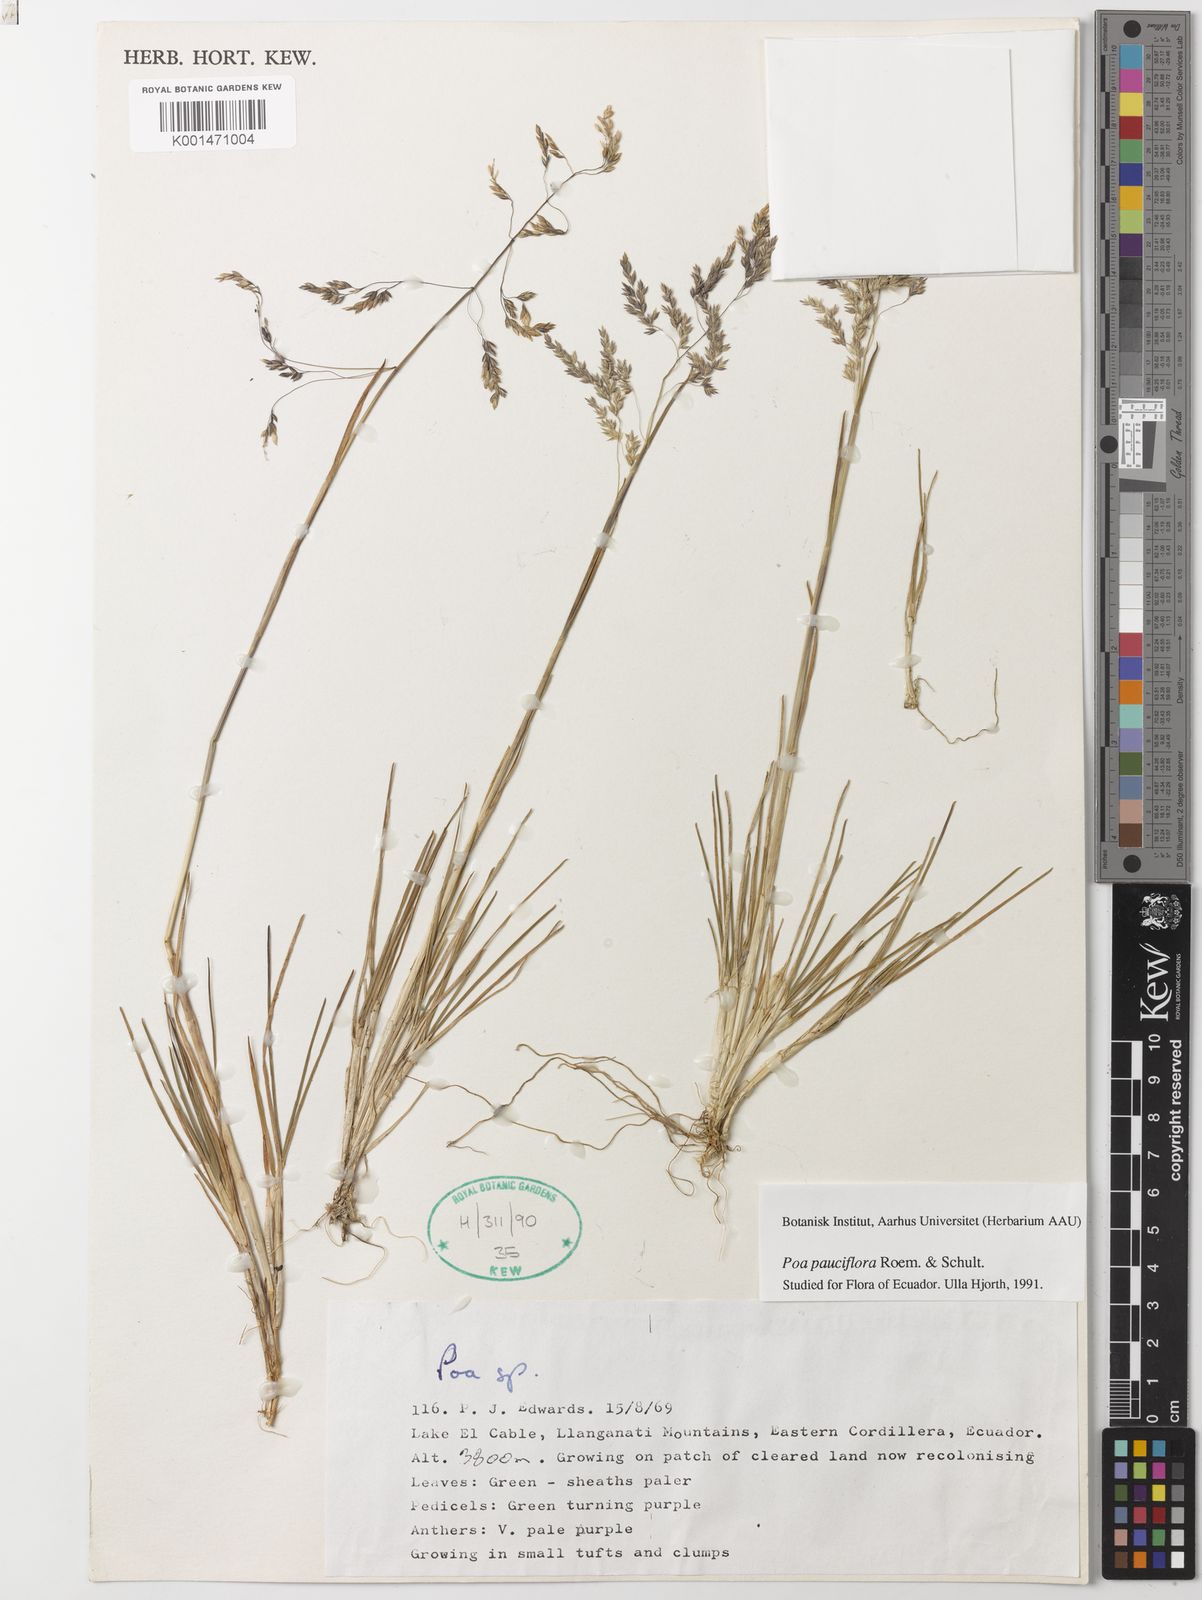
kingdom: Plantae
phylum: Tracheophyta
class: Liliopsida
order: Poales
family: Poaceae
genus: Poa
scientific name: Poa pauciflora
